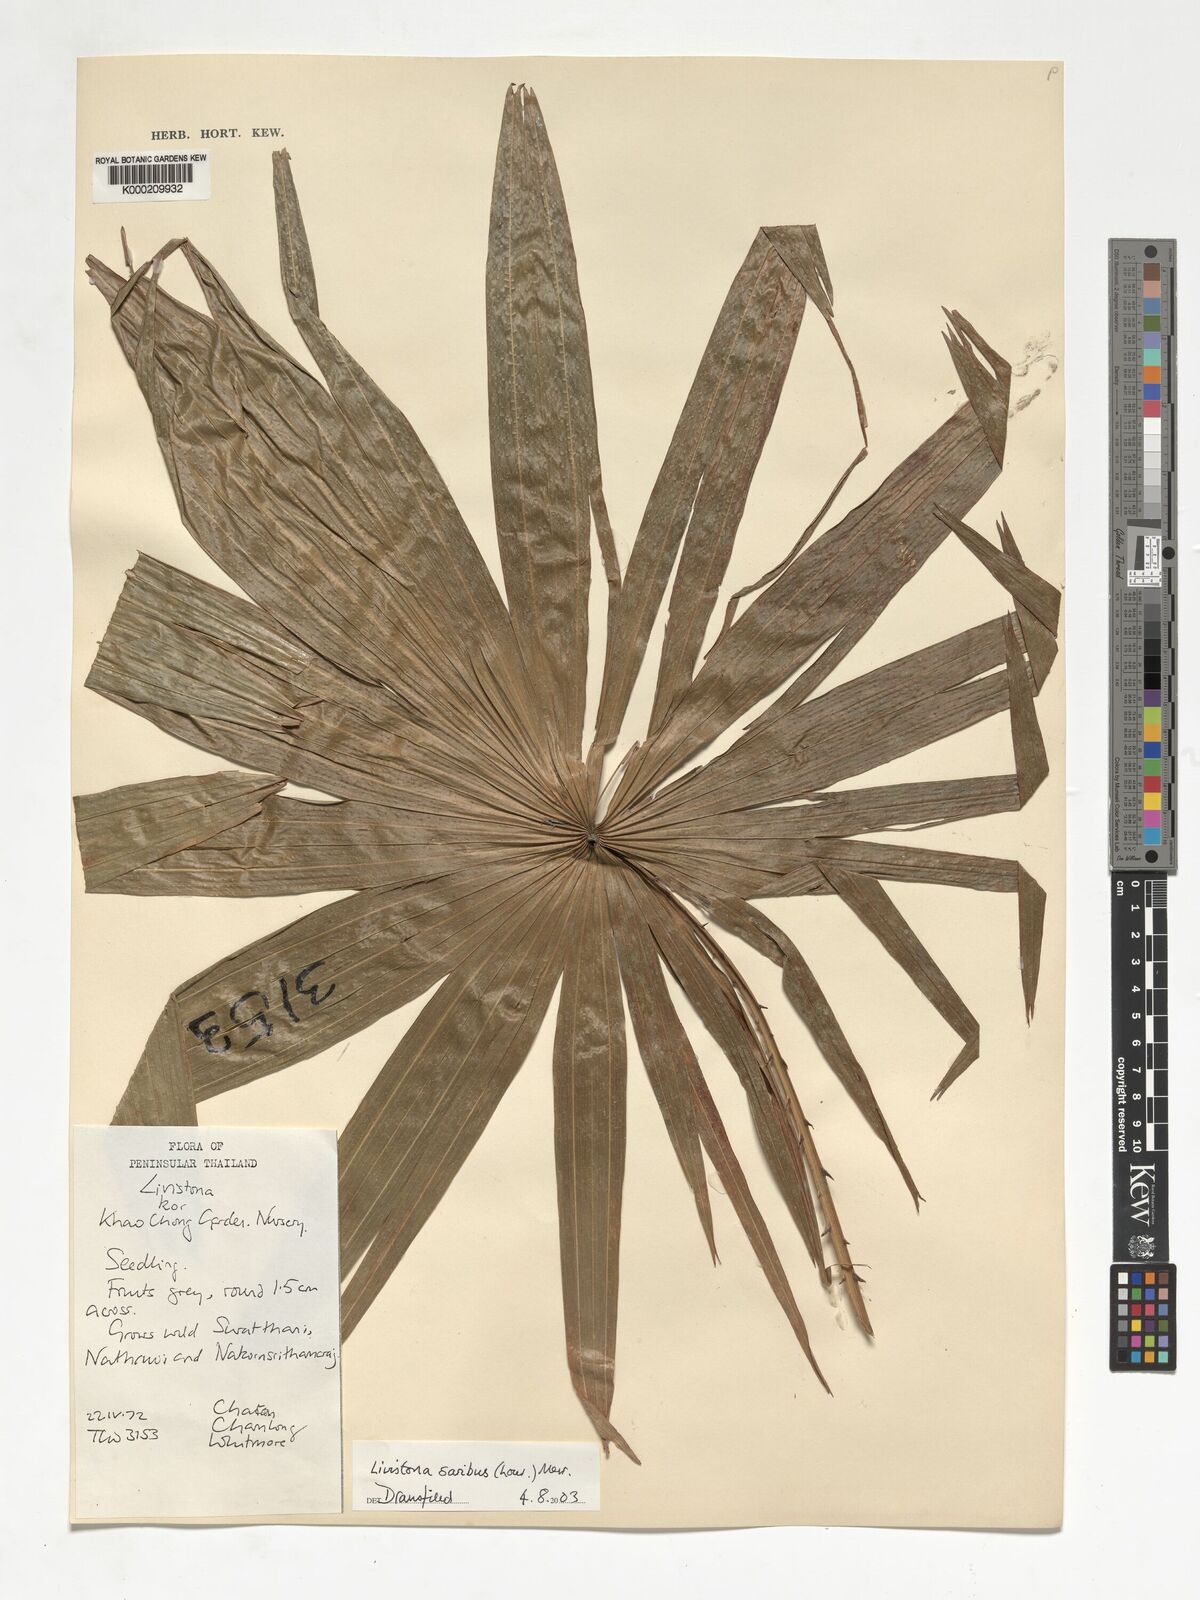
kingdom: Plantae
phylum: Tracheophyta
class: Liliopsida
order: Arecales
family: Arecaceae
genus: Livistona
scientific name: Livistona saribus
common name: Taraw palm
